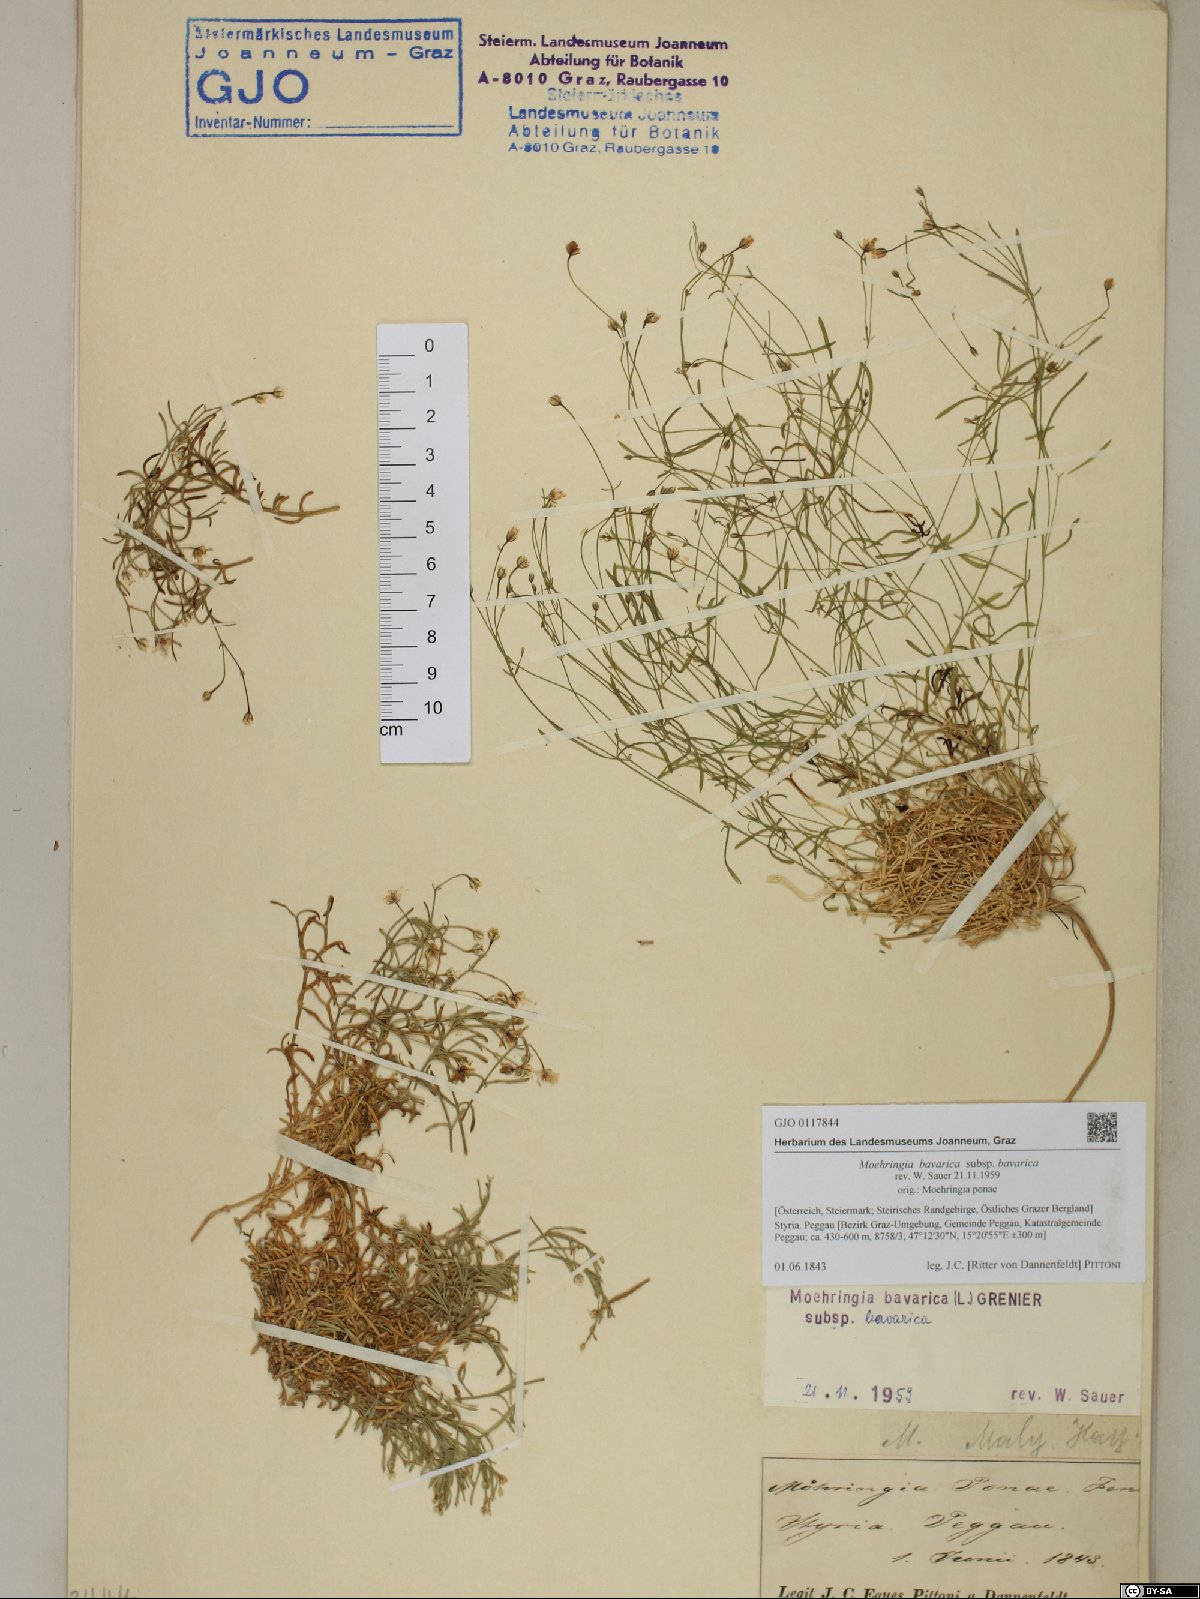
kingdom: Plantae
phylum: Tracheophyta
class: Magnoliopsida
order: Caryophyllales
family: Caryophyllaceae
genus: Moehringia
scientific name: Moehringia bavarica
